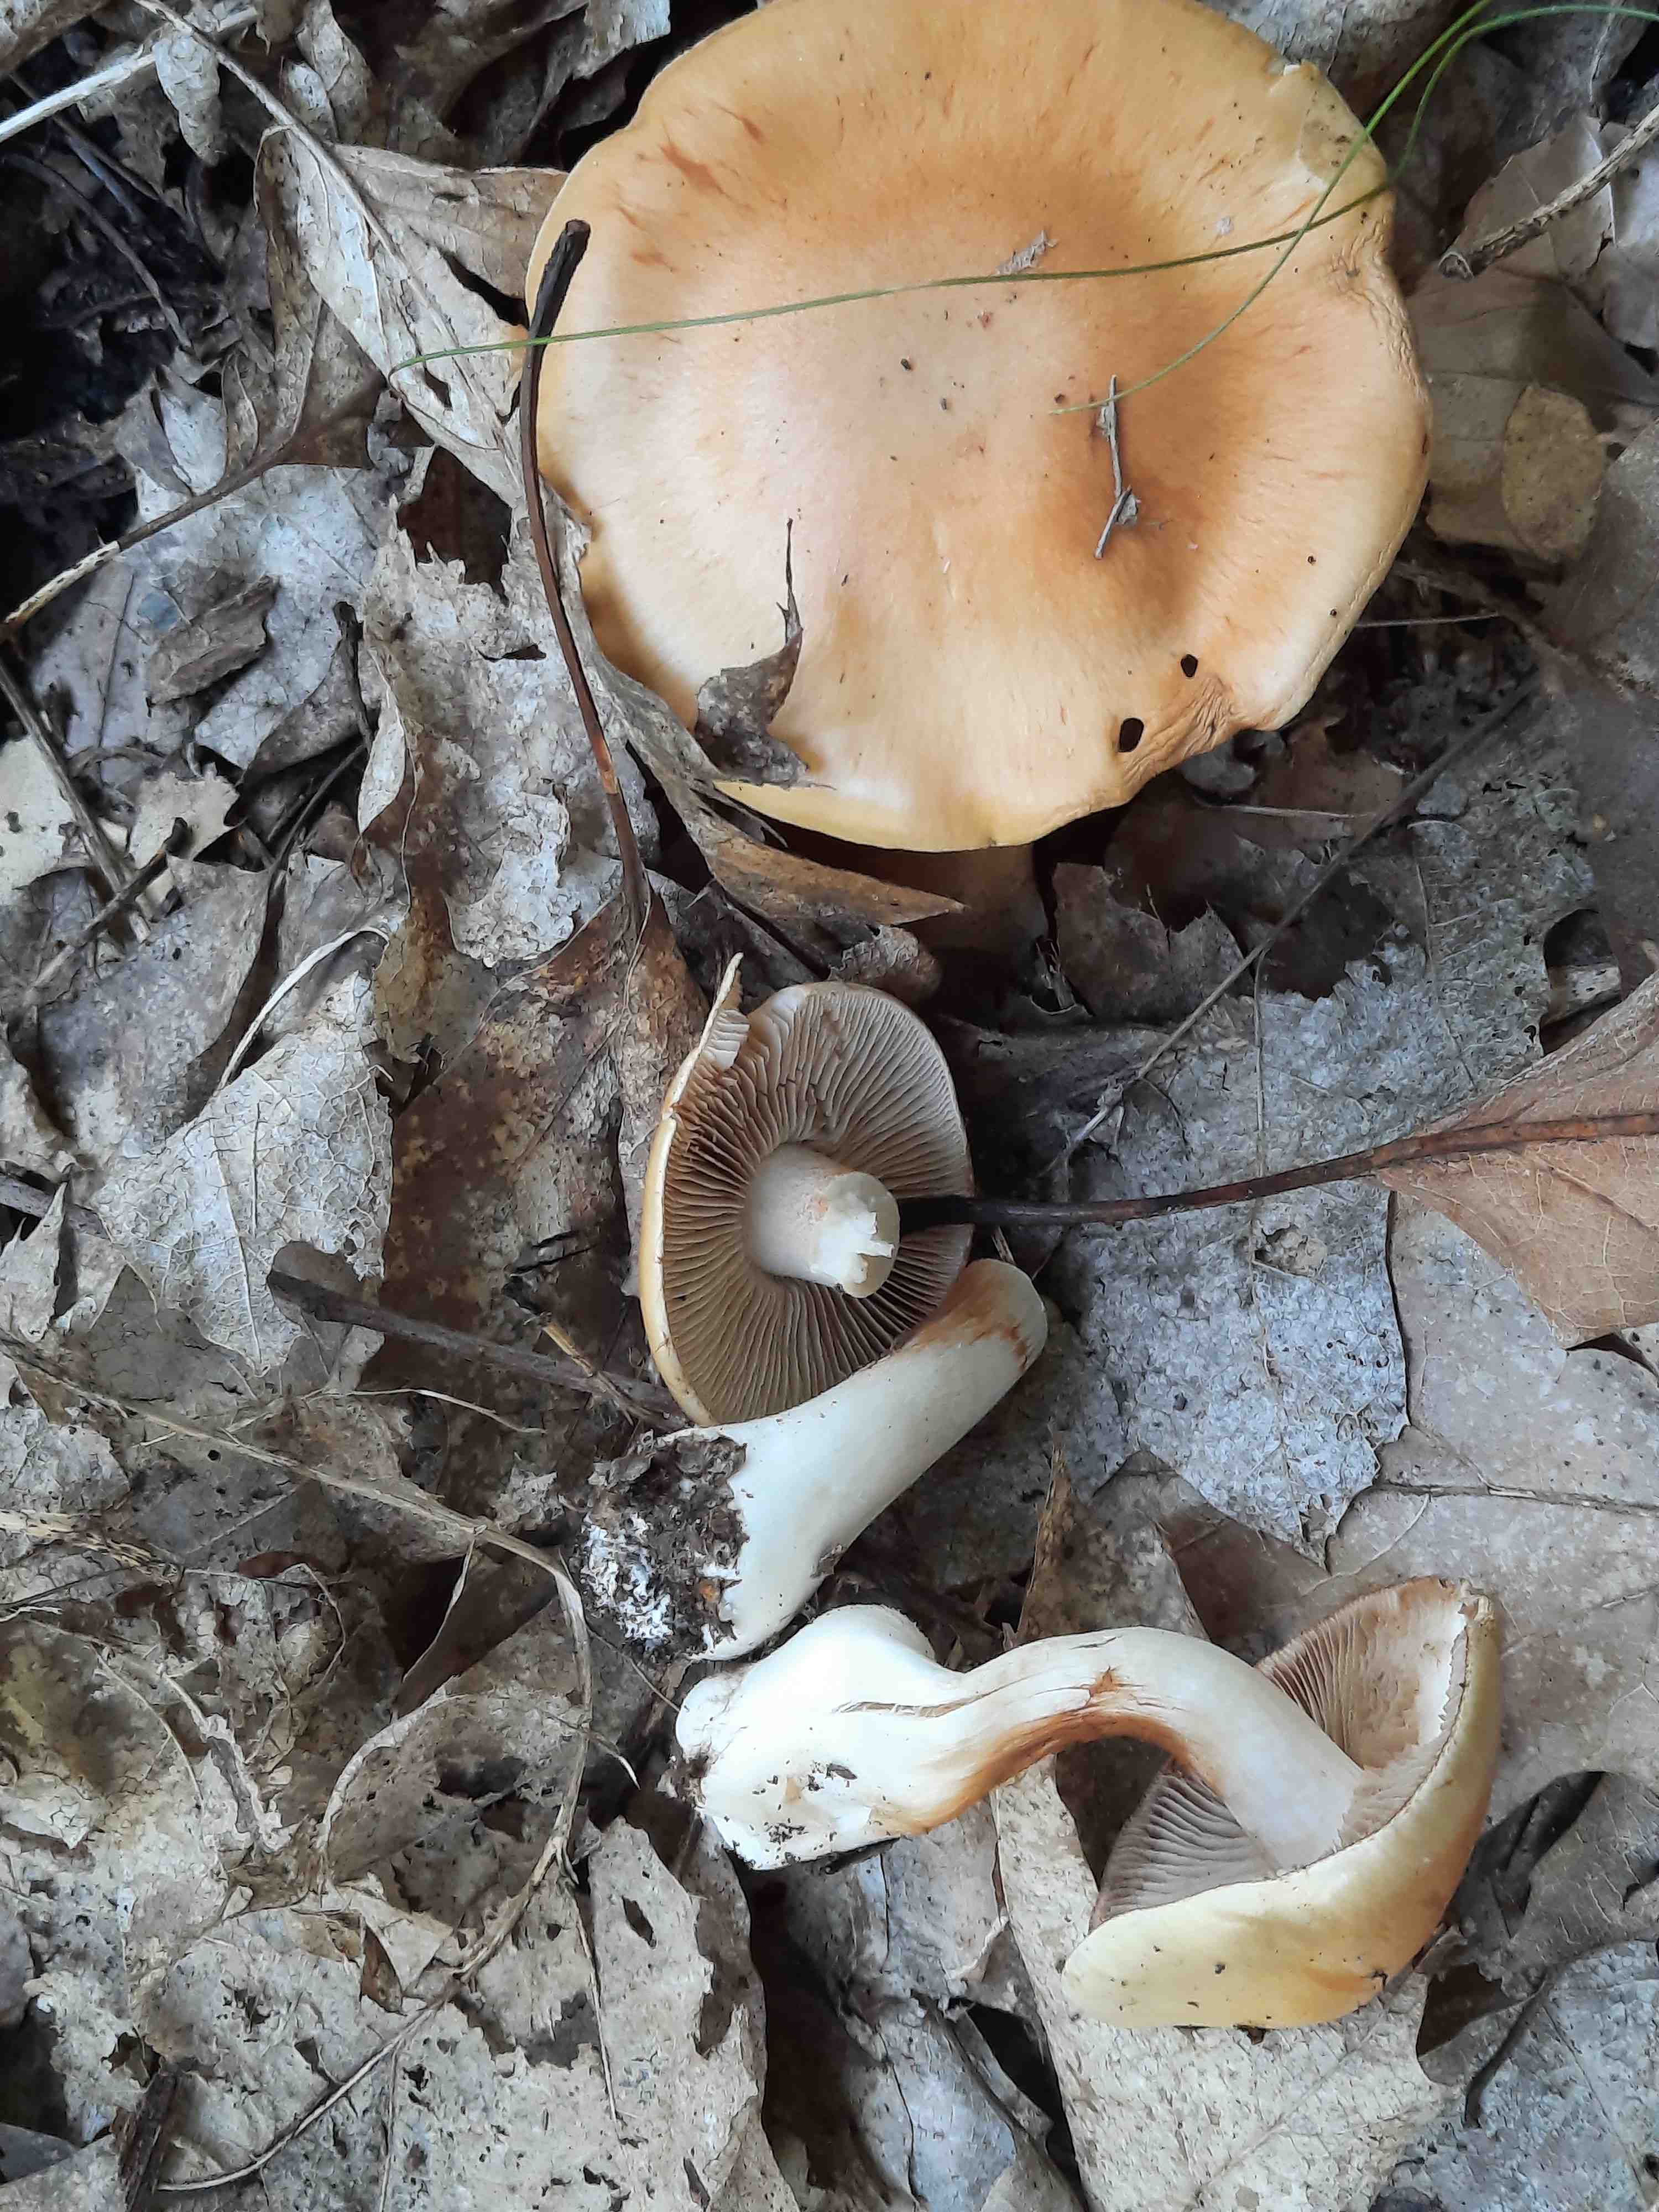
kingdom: Fungi
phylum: Basidiomycota
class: Agaricomycetes
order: Agaricales
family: Cortinariaceae
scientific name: Cortinariaceae
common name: slørhatfamilien
